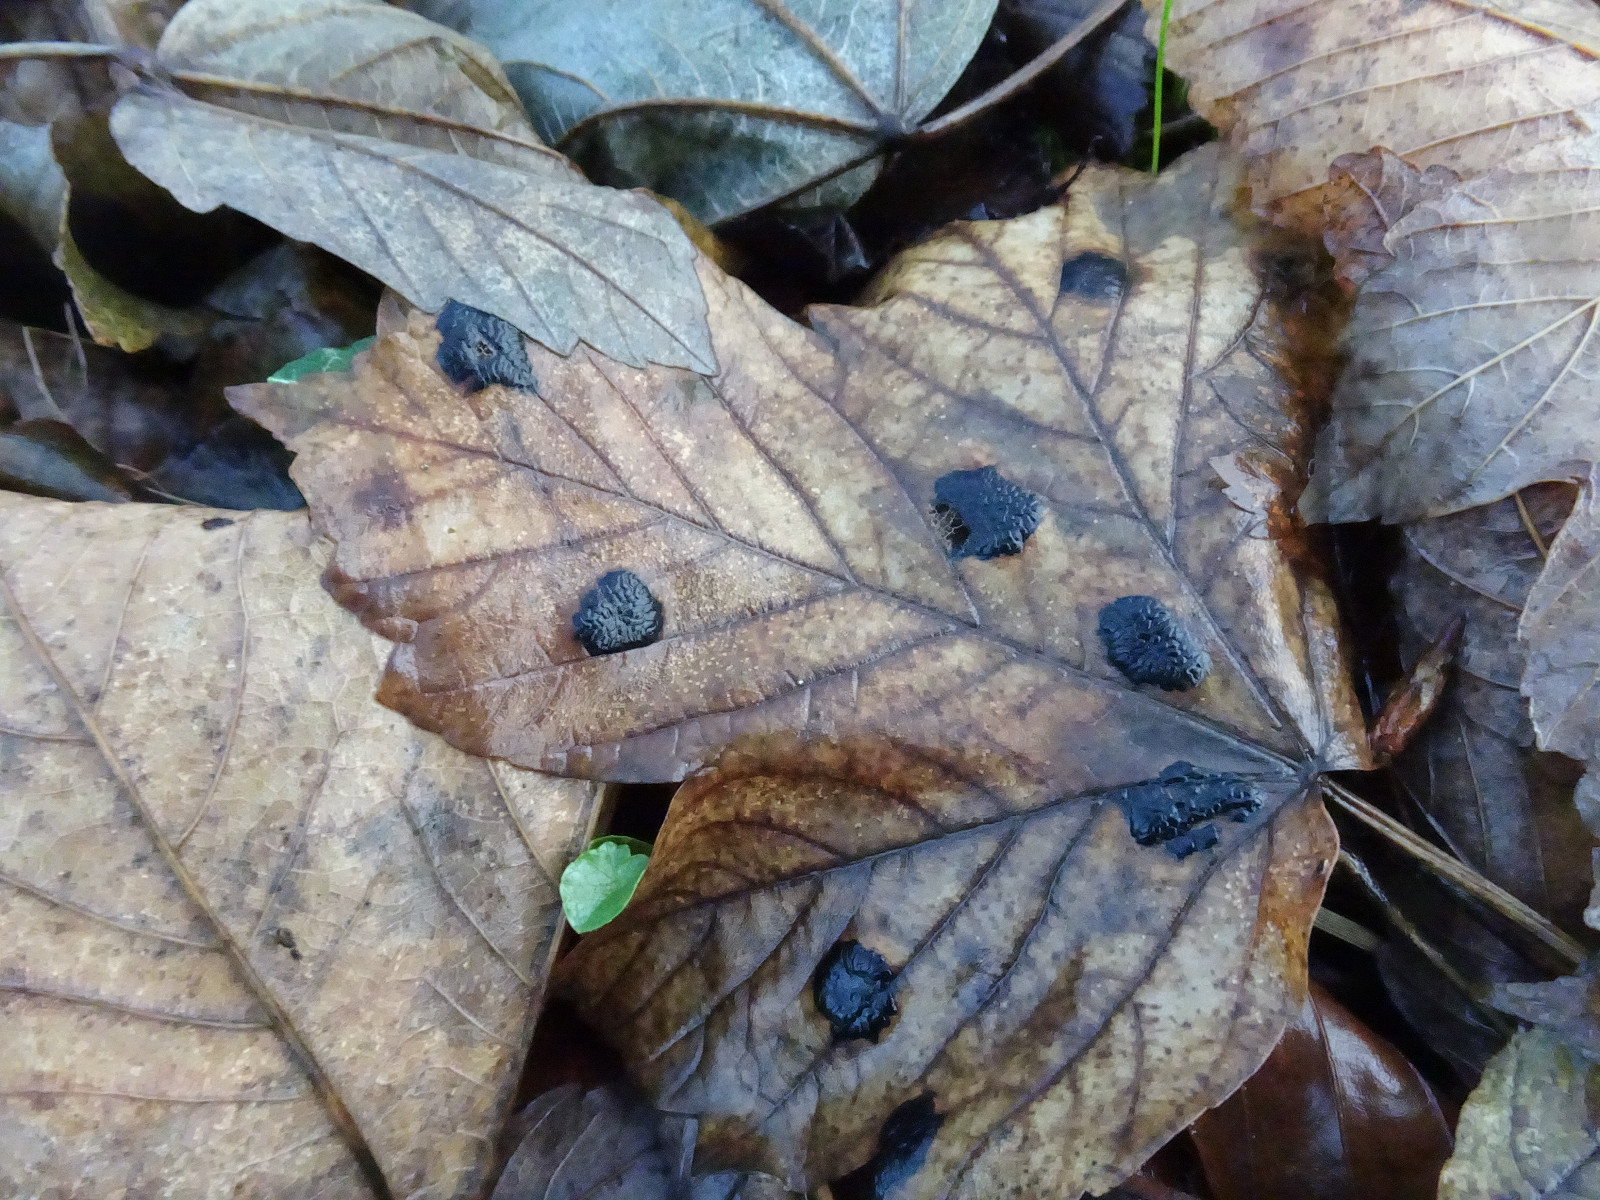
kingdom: Fungi
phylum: Ascomycota
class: Leotiomycetes
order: Rhytismatales
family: Rhytismataceae
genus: Rhytisma
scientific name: Rhytisma acerinum
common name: ahorn-rynkeplet
